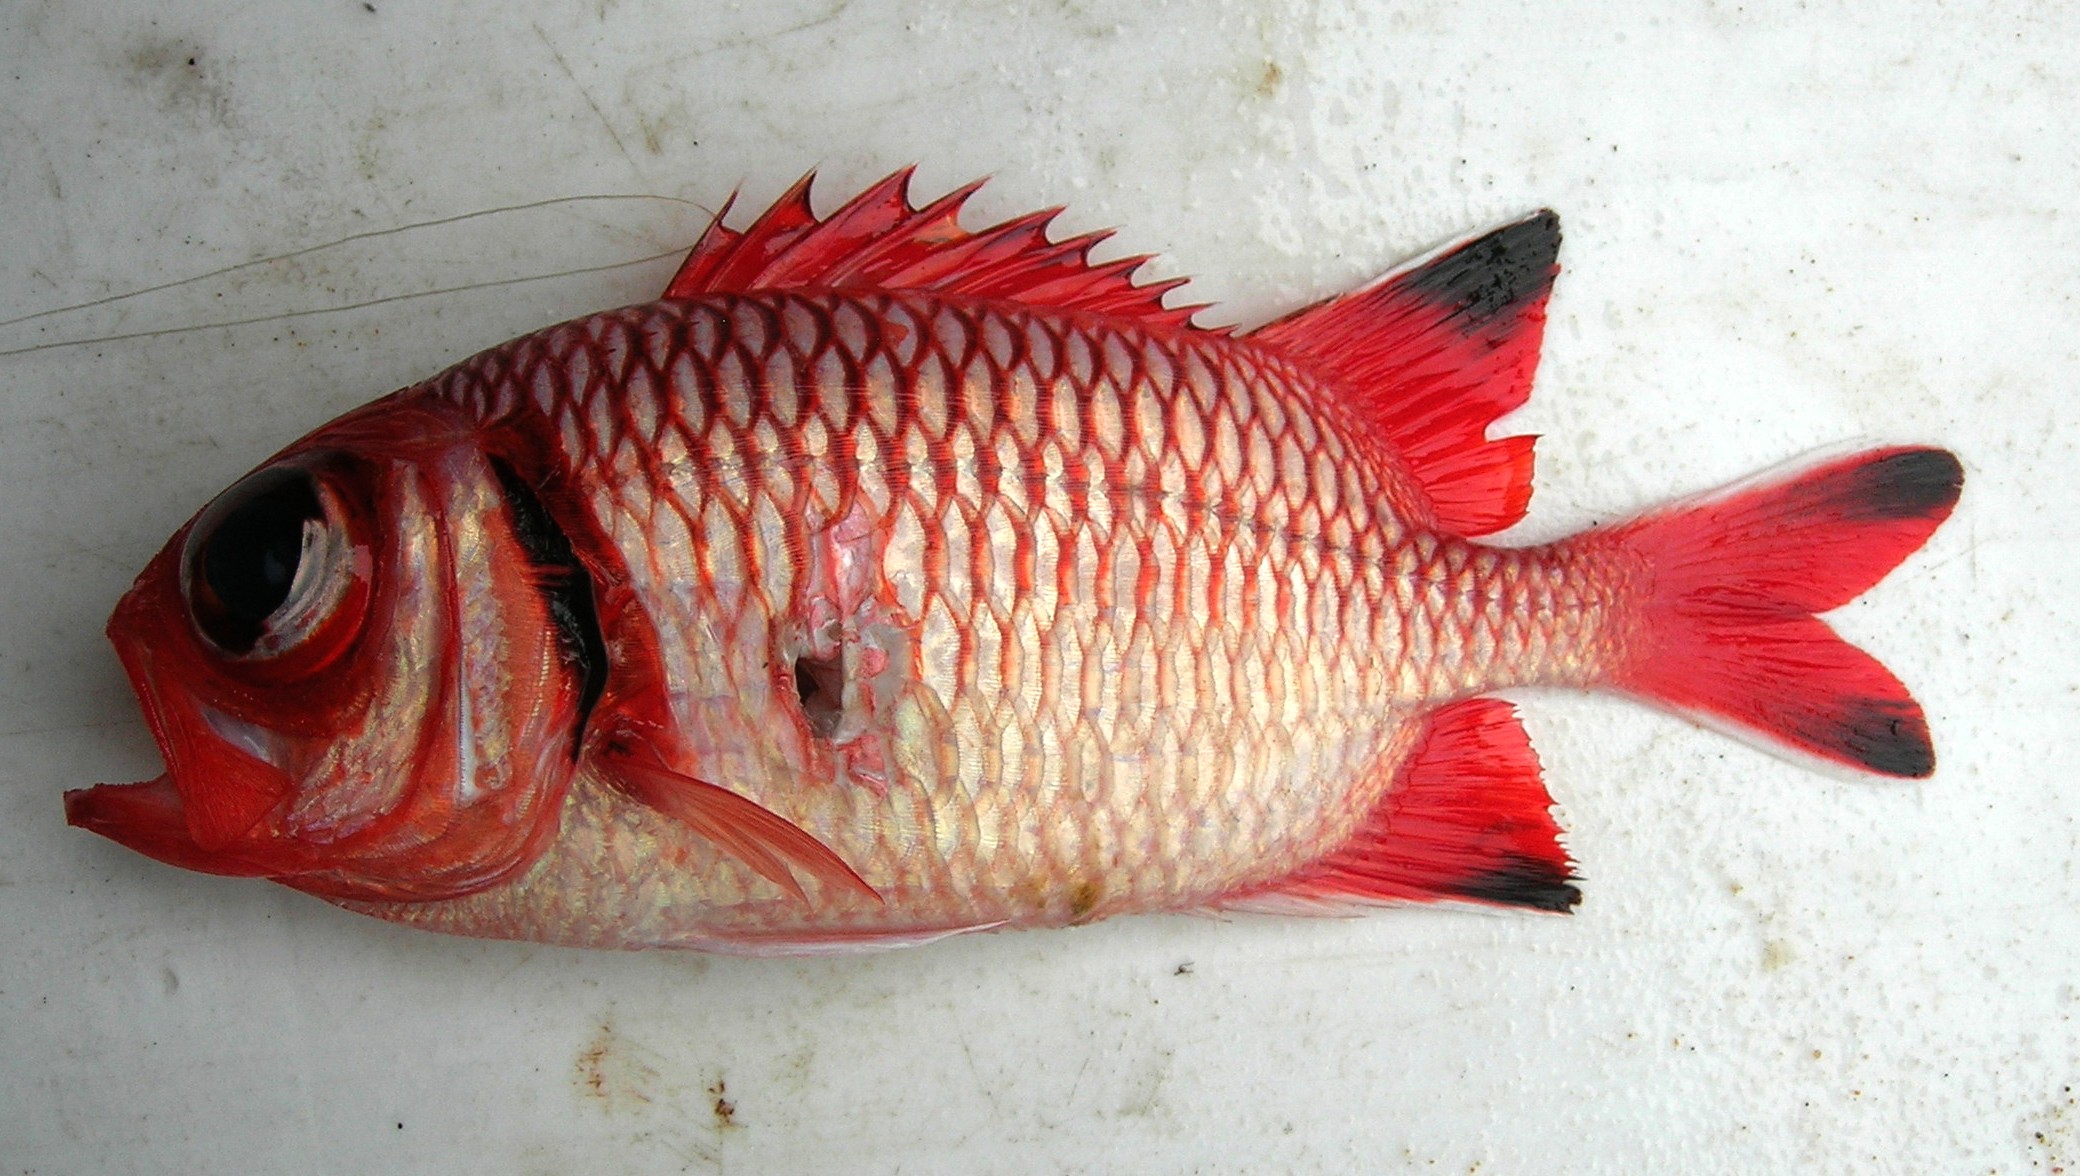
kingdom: Animalia
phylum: Chordata
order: Beryciformes
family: Holocentridae
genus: Myripristis
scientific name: Myripristis botche
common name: Blacktip soldierfish
